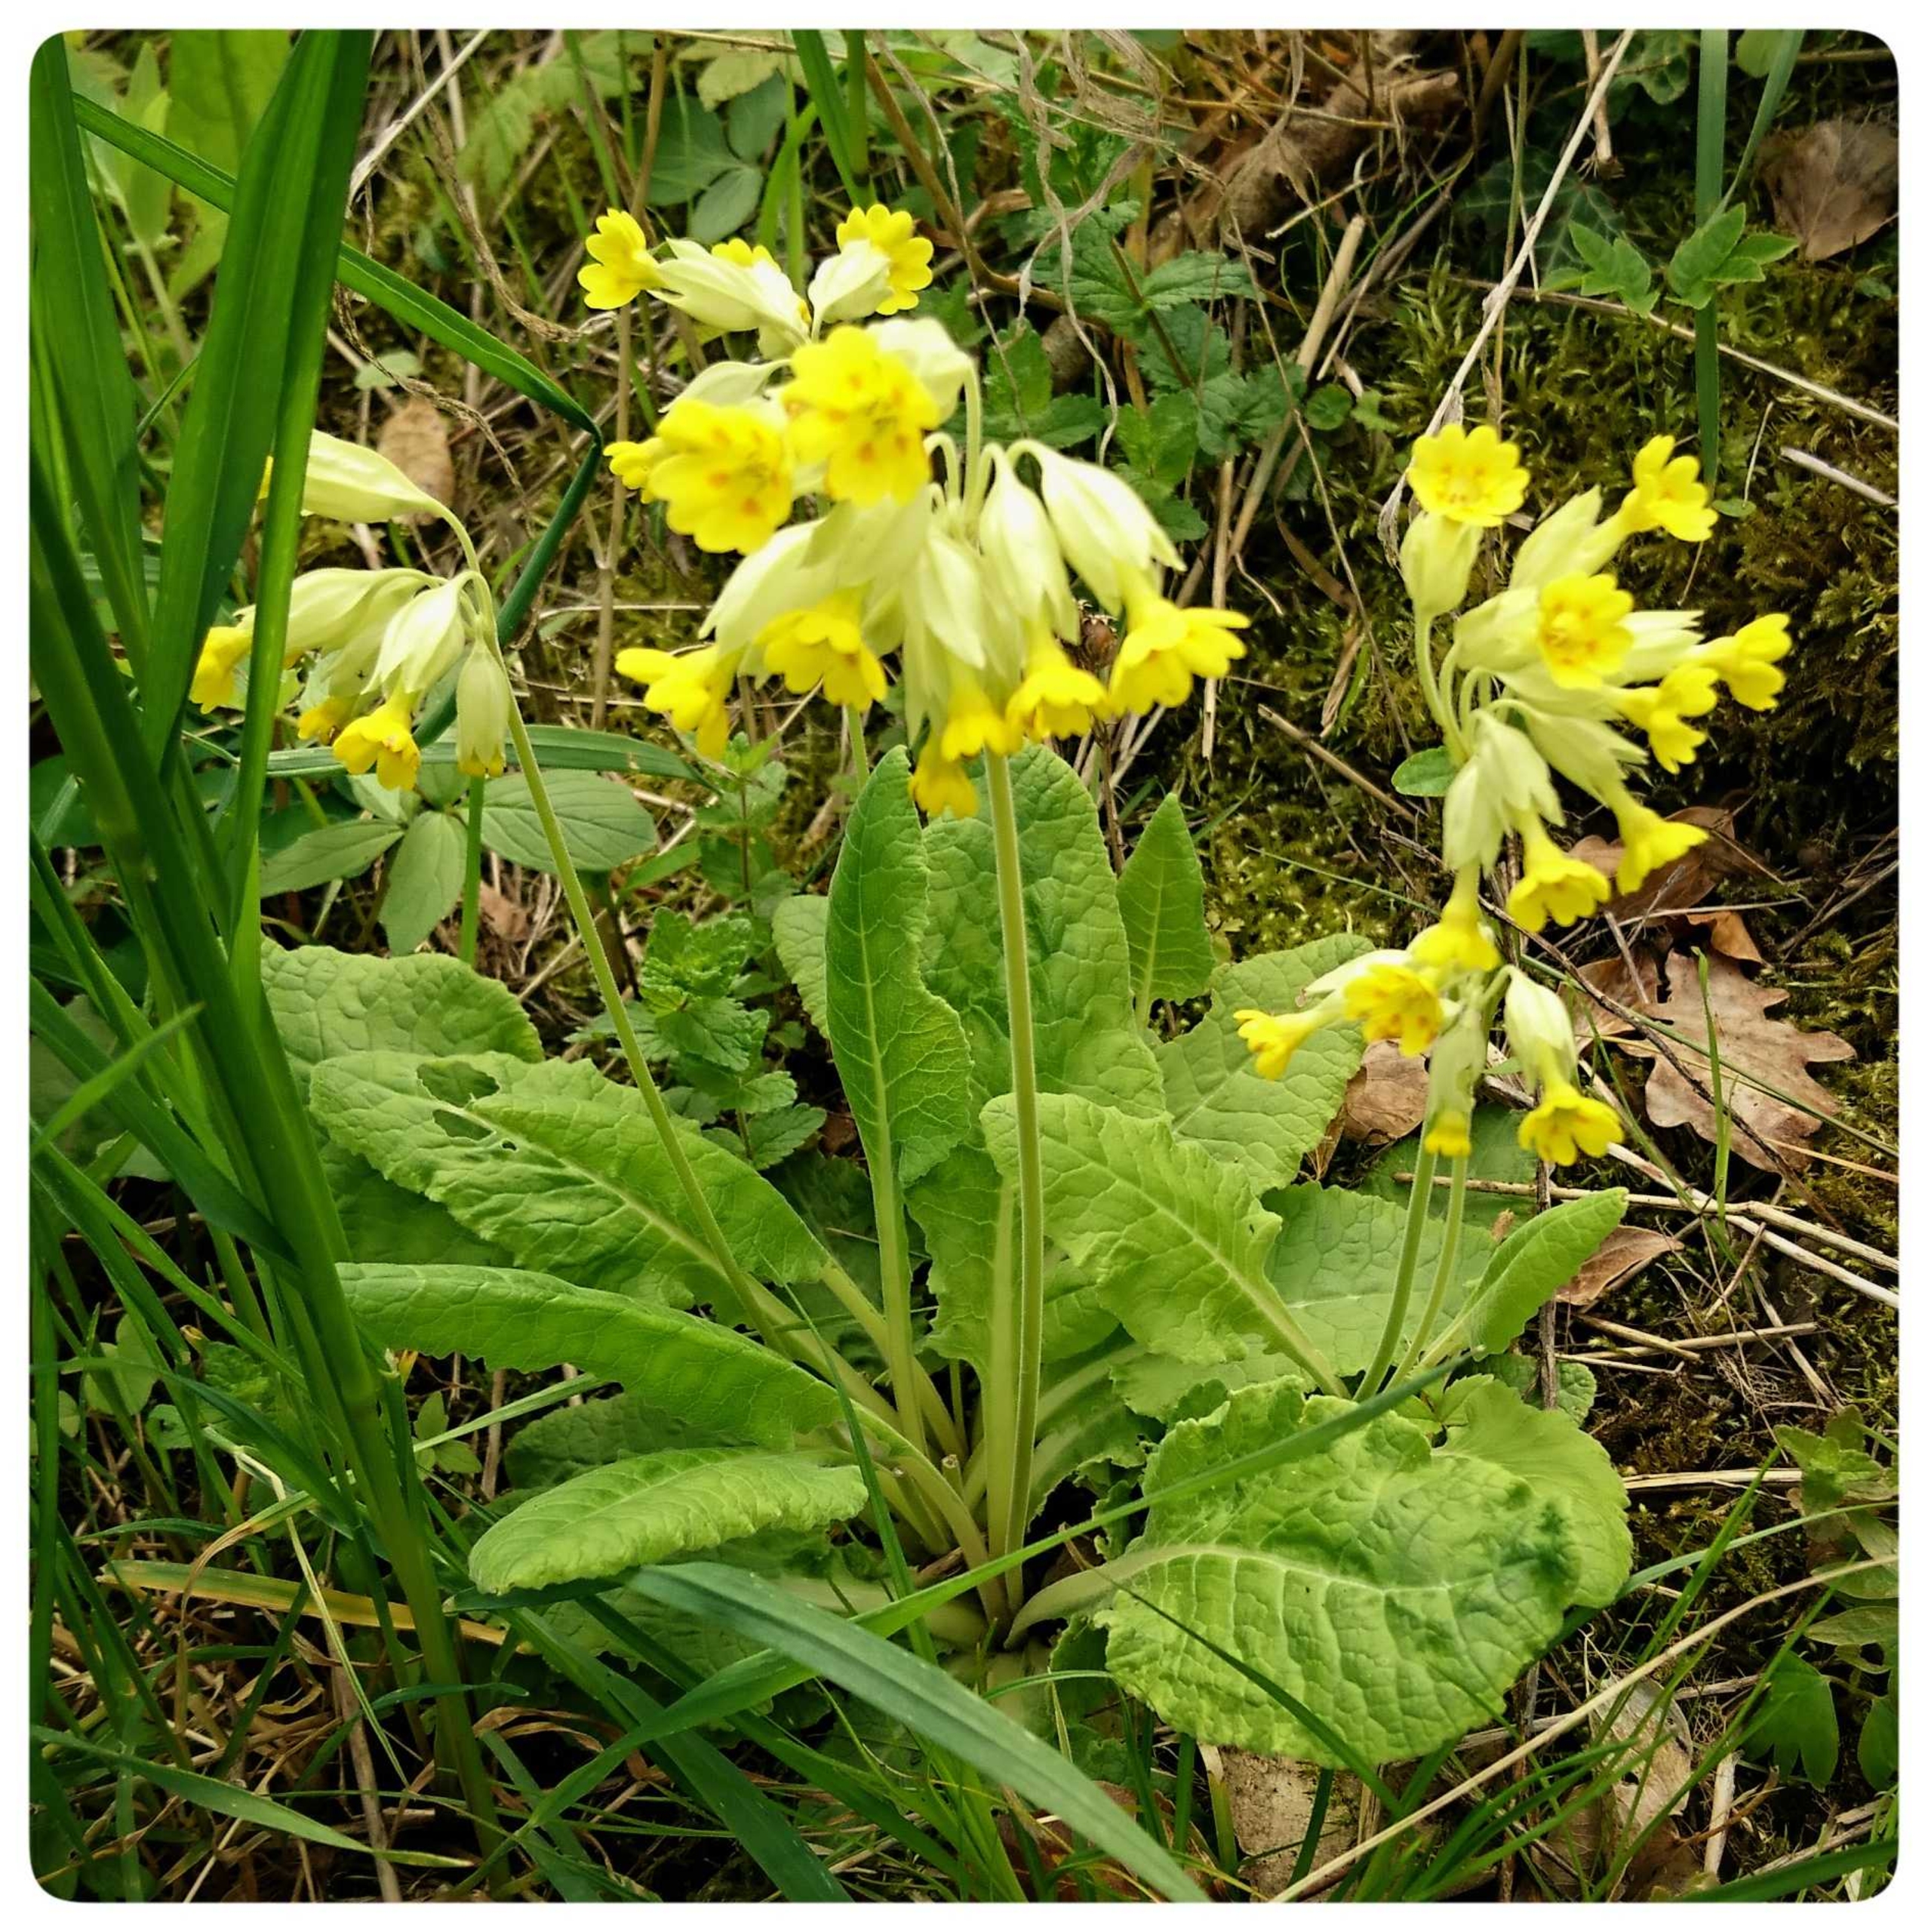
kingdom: Plantae
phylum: Tracheophyta
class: Magnoliopsida
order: Ericales
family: Primulaceae
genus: Primula
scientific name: Primula veris
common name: Hulkravet kodriver
